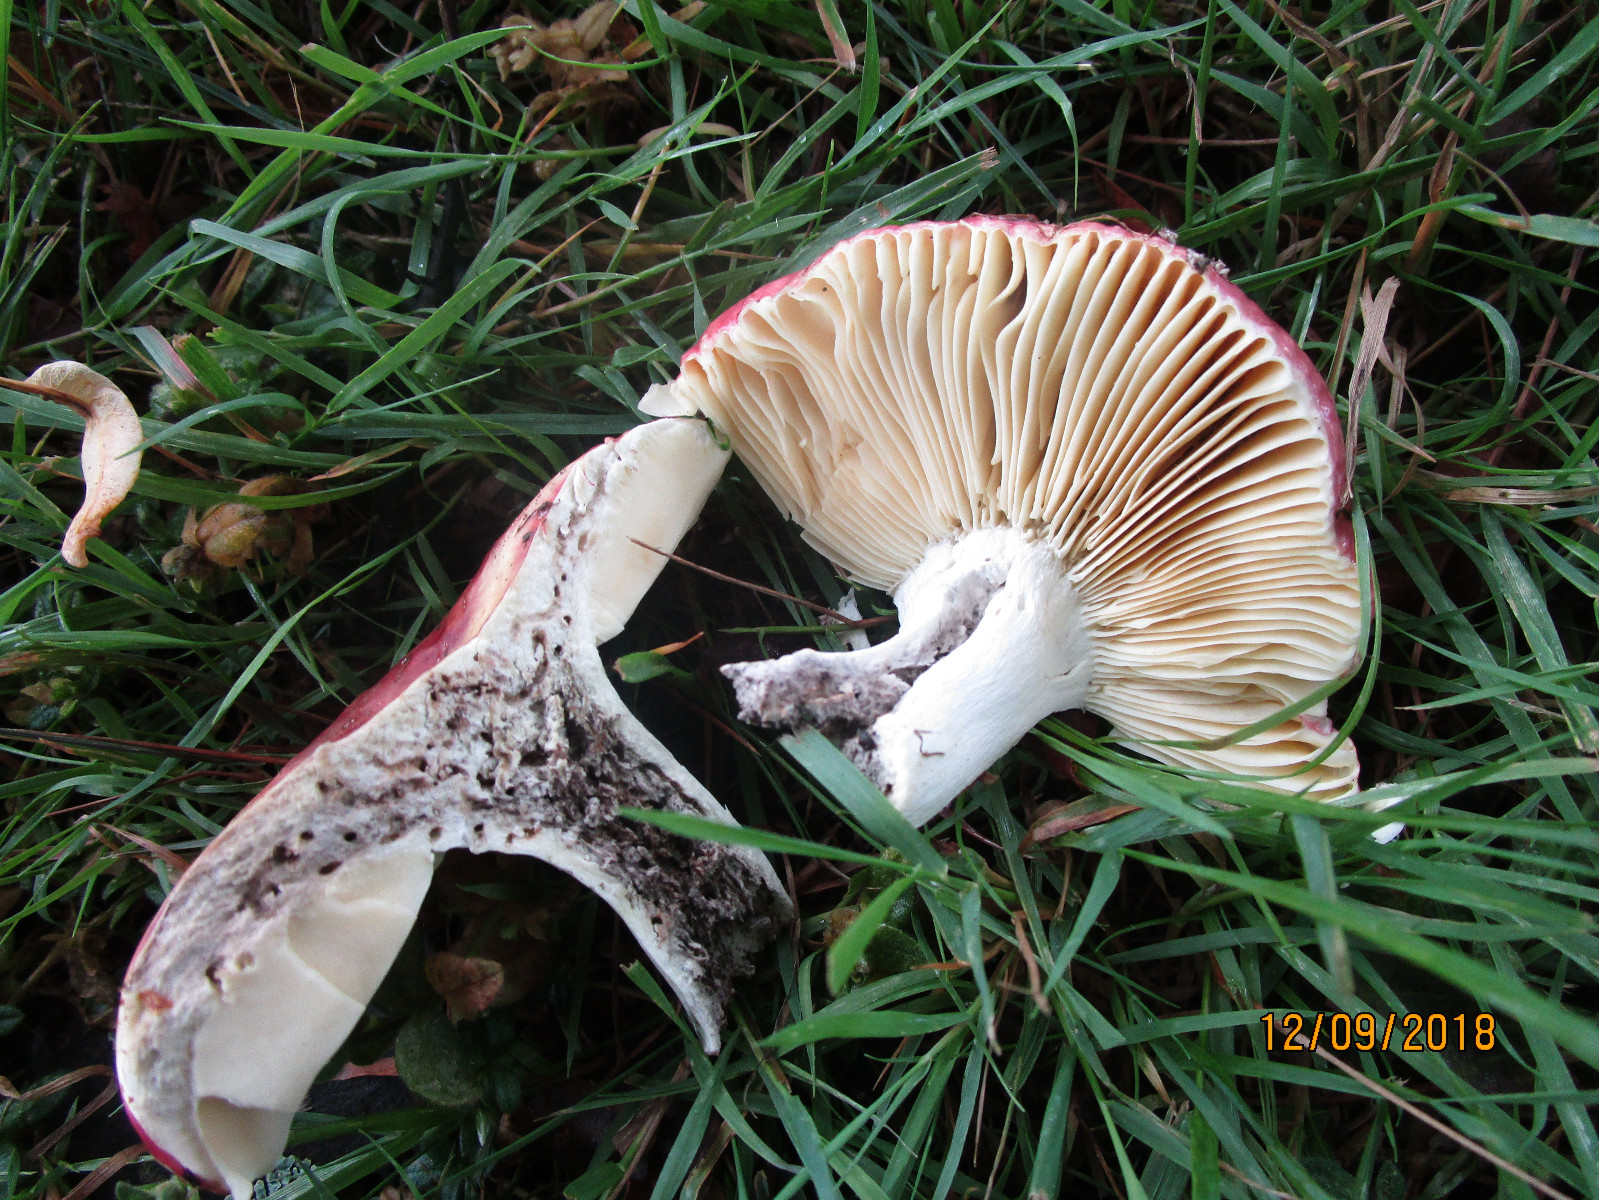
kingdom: Fungi
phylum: Basidiomycota
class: Agaricomycetes
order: Russulales
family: Russulaceae
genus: Russula
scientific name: Russula seperina
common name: rødmende skørhat
